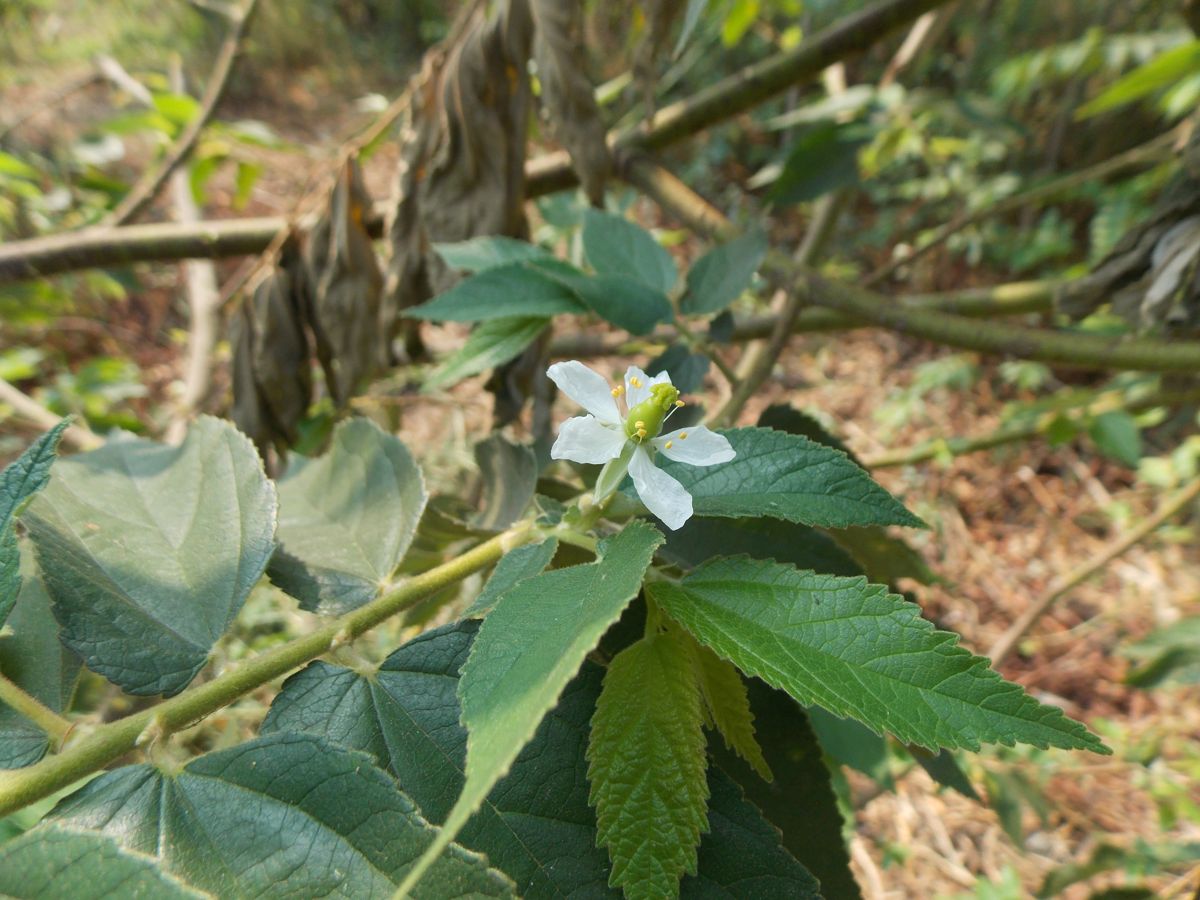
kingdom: Plantae
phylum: Tracheophyta
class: Magnoliopsida
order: Malvales
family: Muntingiaceae
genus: Muntingia
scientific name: Muntingia calabura
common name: Strawberrytree
